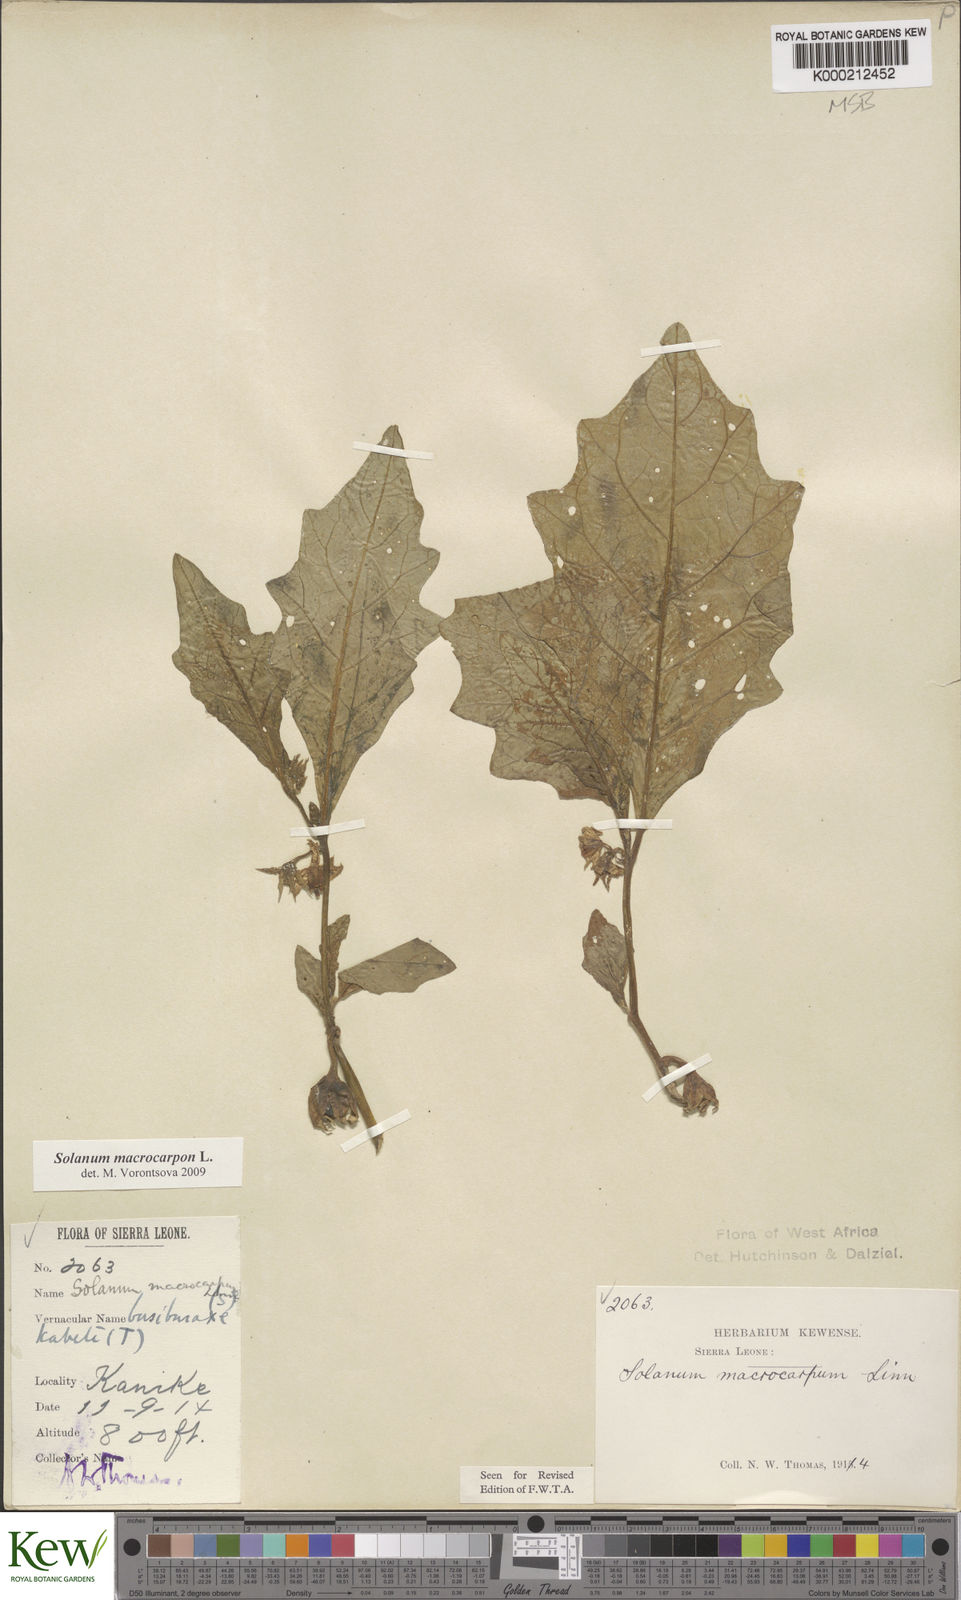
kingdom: Plantae
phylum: Tracheophyta
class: Magnoliopsida
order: Solanales
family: Solanaceae
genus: Solanum
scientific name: Solanum macrocarpon
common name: African eggplant
